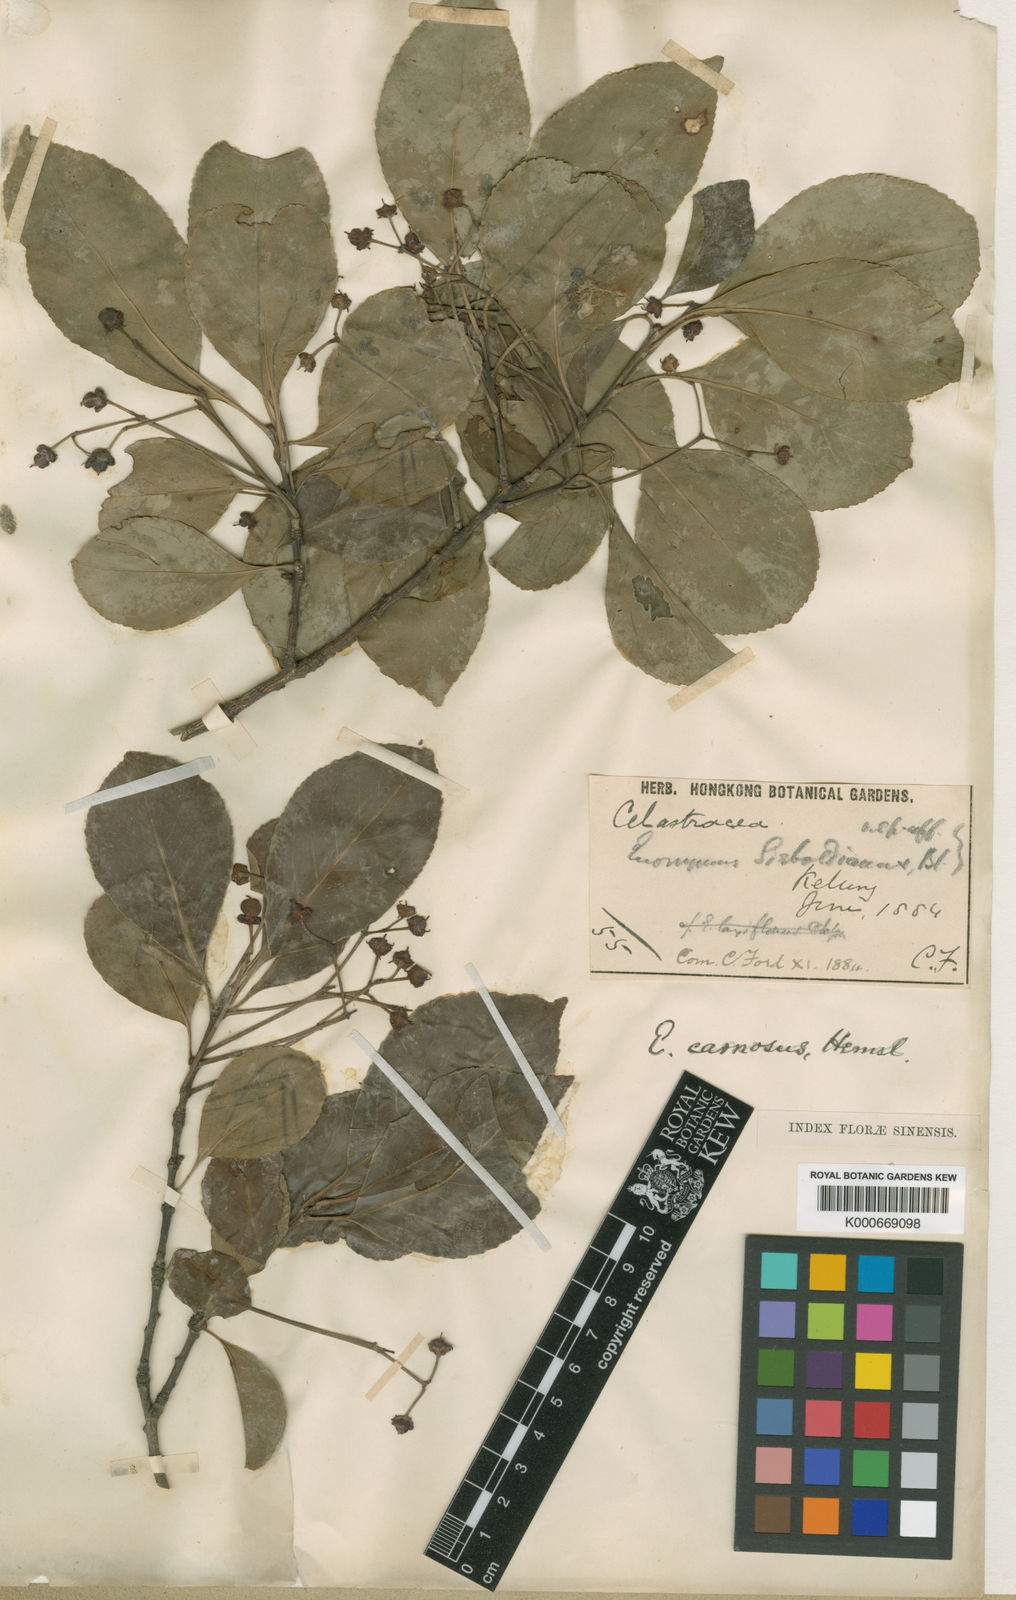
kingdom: Plantae
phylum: Tracheophyta
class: Magnoliopsida
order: Celastrales
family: Celastraceae
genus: Euonymus
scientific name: Euonymus carnosus
